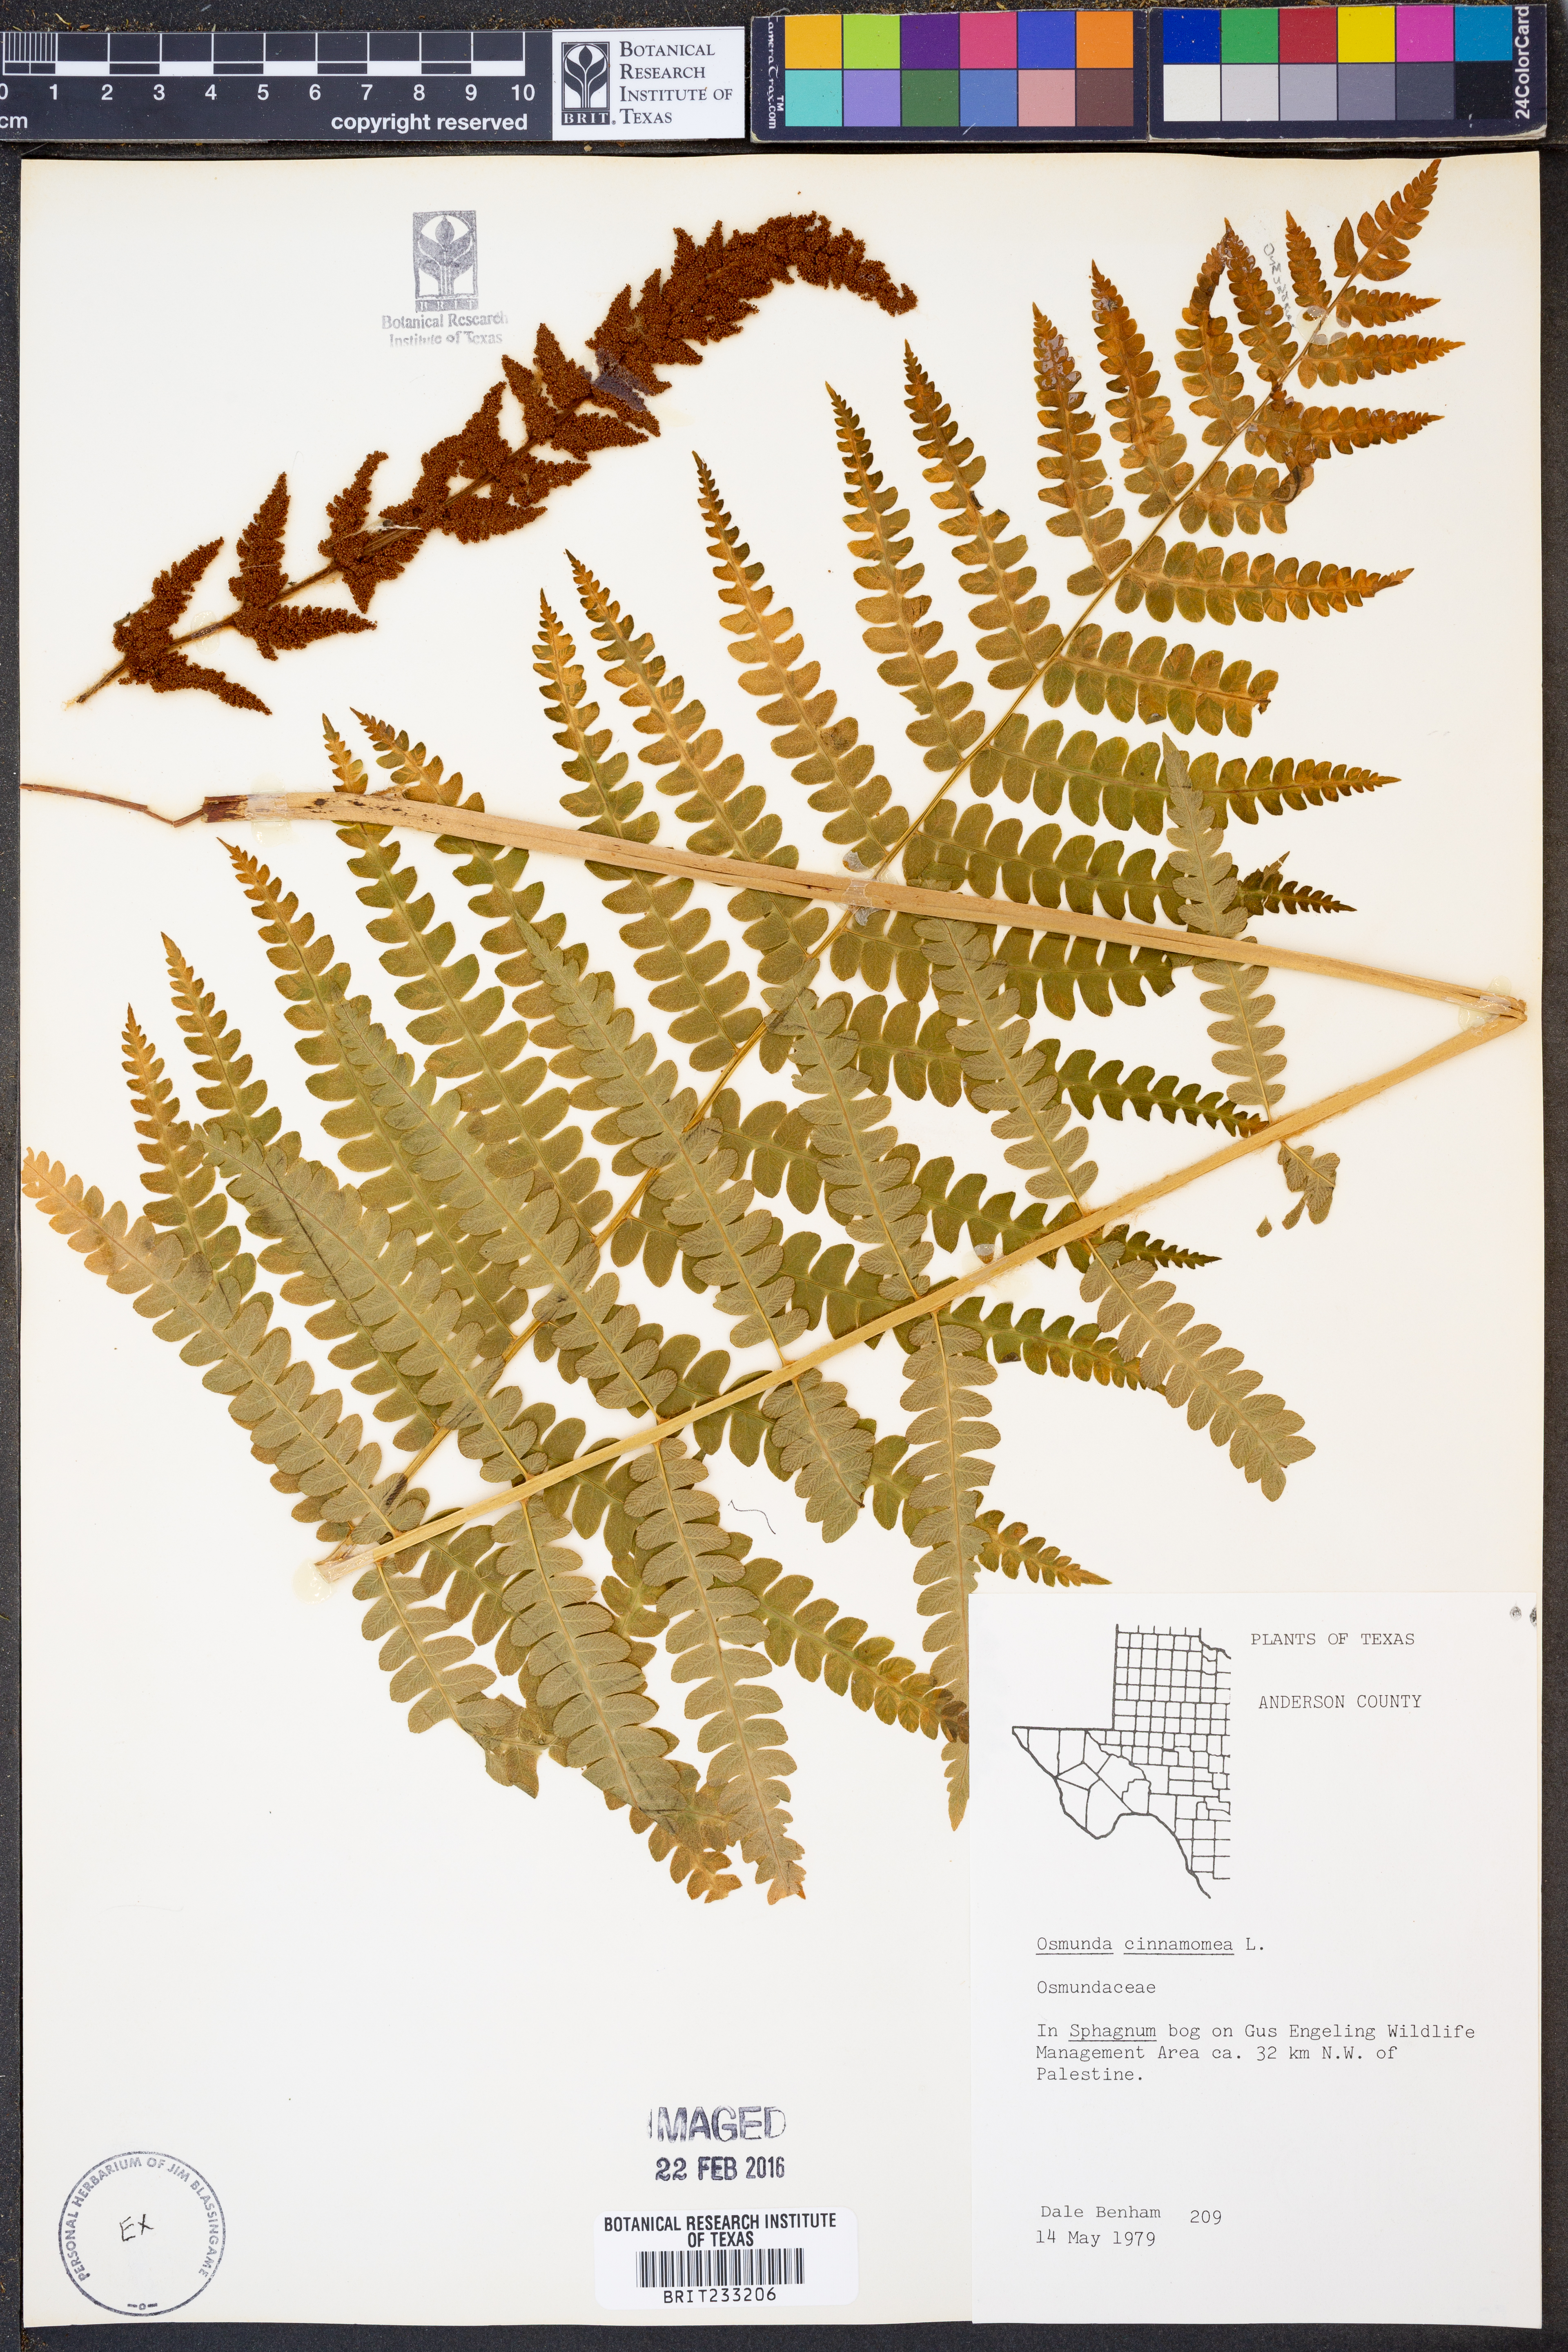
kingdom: Plantae
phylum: Tracheophyta
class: Polypodiopsida
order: Osmundales
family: Osmundaceae
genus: Osmundastrum
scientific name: Osmundastrum cinnamomeum
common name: Cinnamon fern
